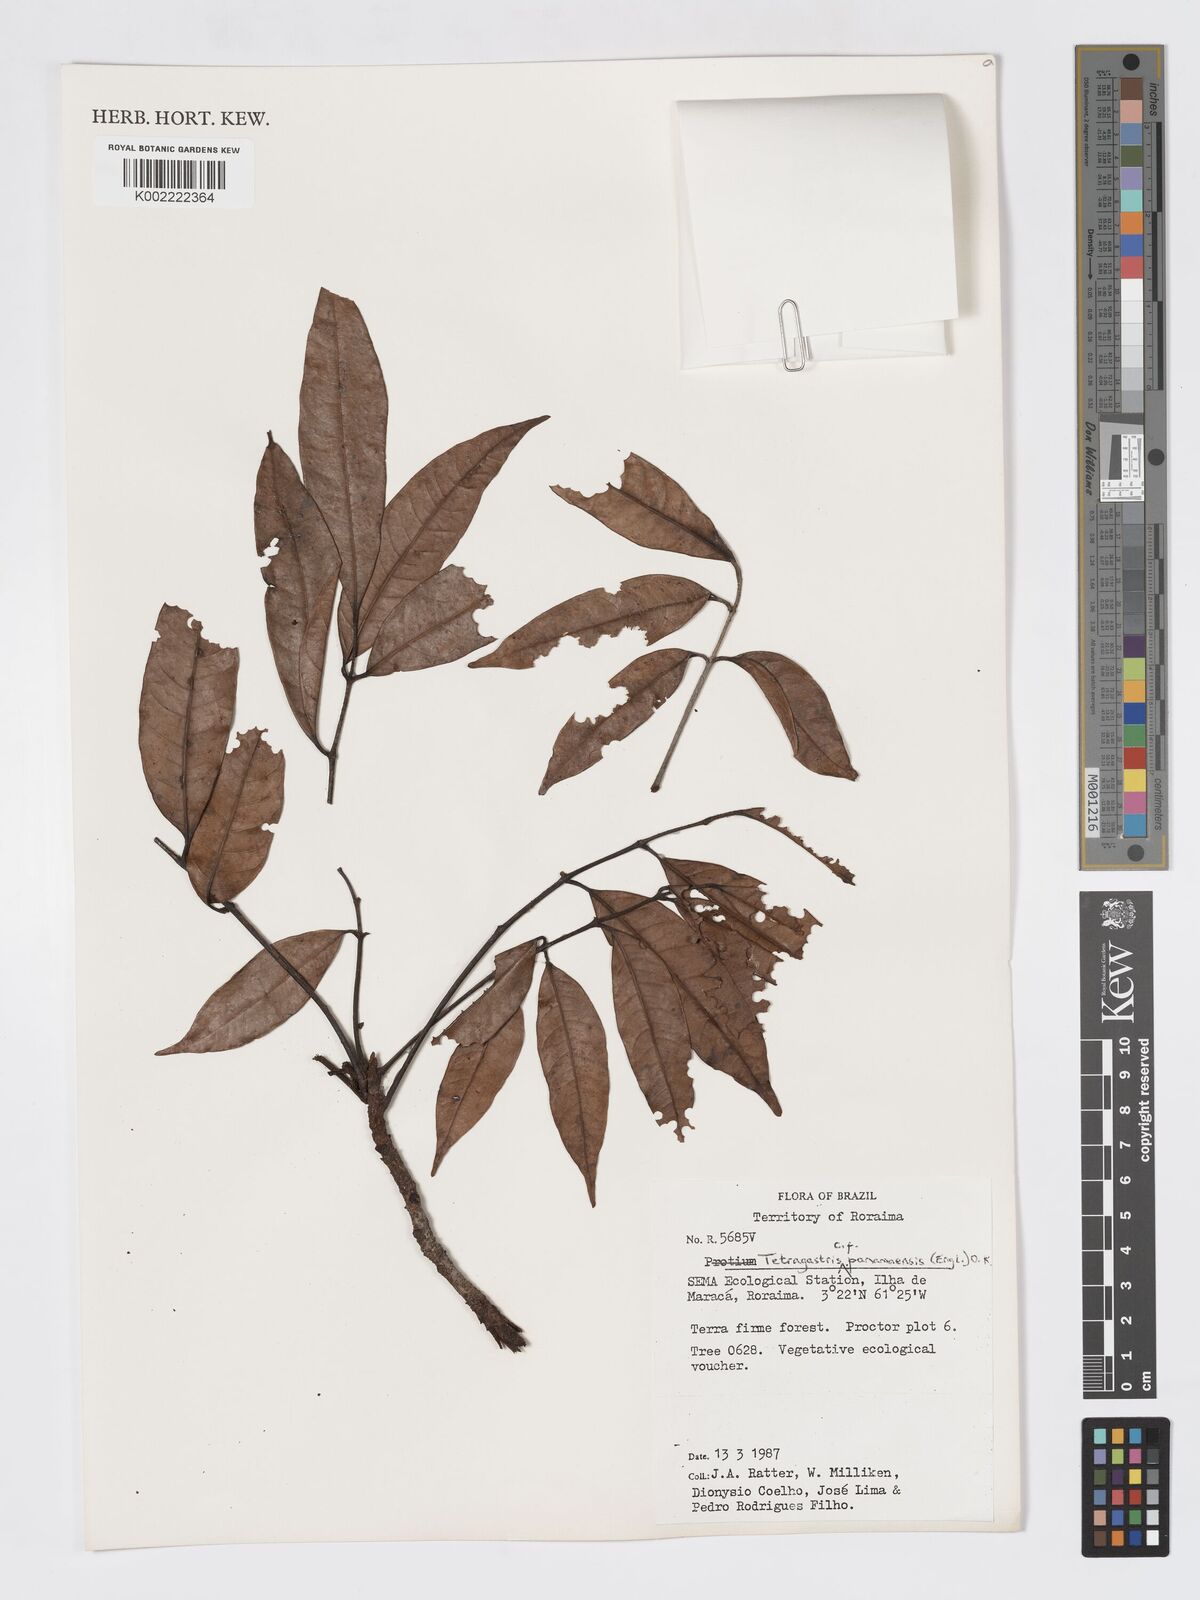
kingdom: Plantae
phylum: Tracheophyta
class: Magnoliopsida
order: Sapindales
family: Burseraceae
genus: Tetragastris
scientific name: Tetragastris panamensis
